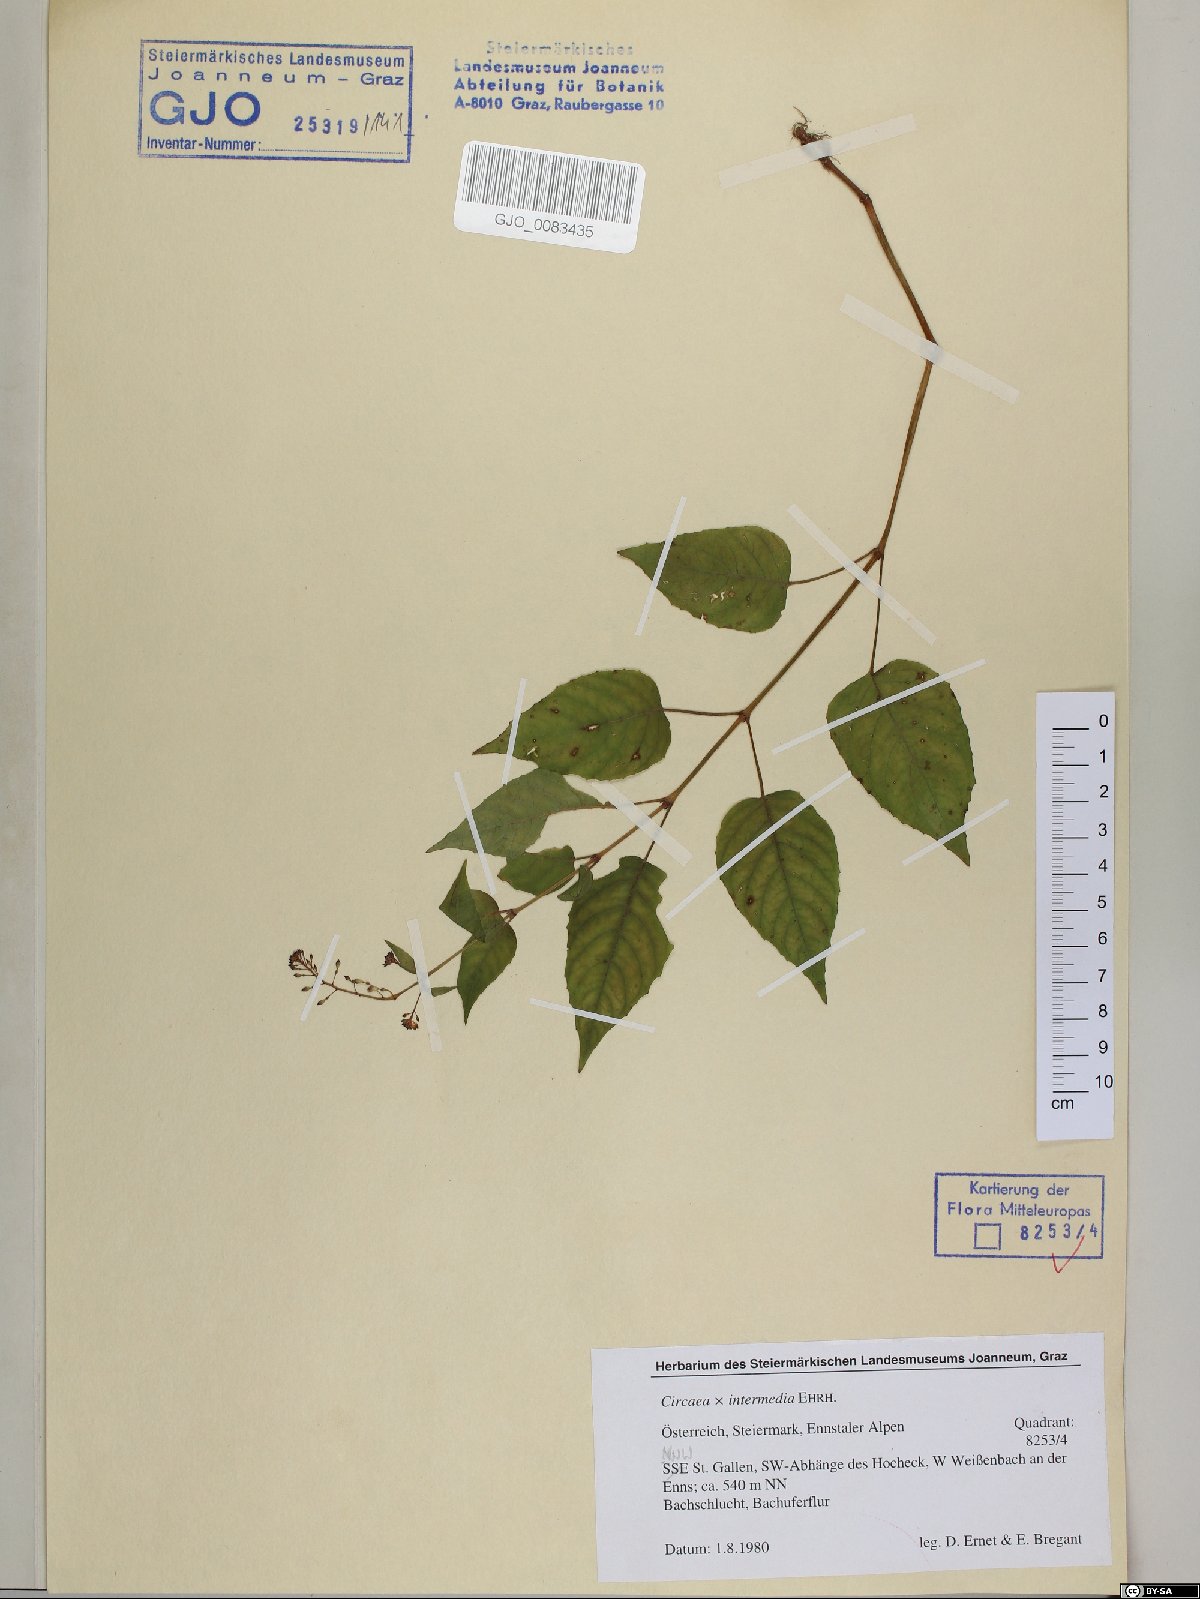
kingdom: Plantae
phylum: Tracheophyta
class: Magnoliopsida
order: Myrtales
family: Onagraceae
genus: Circaea
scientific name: Circaea intermedia
